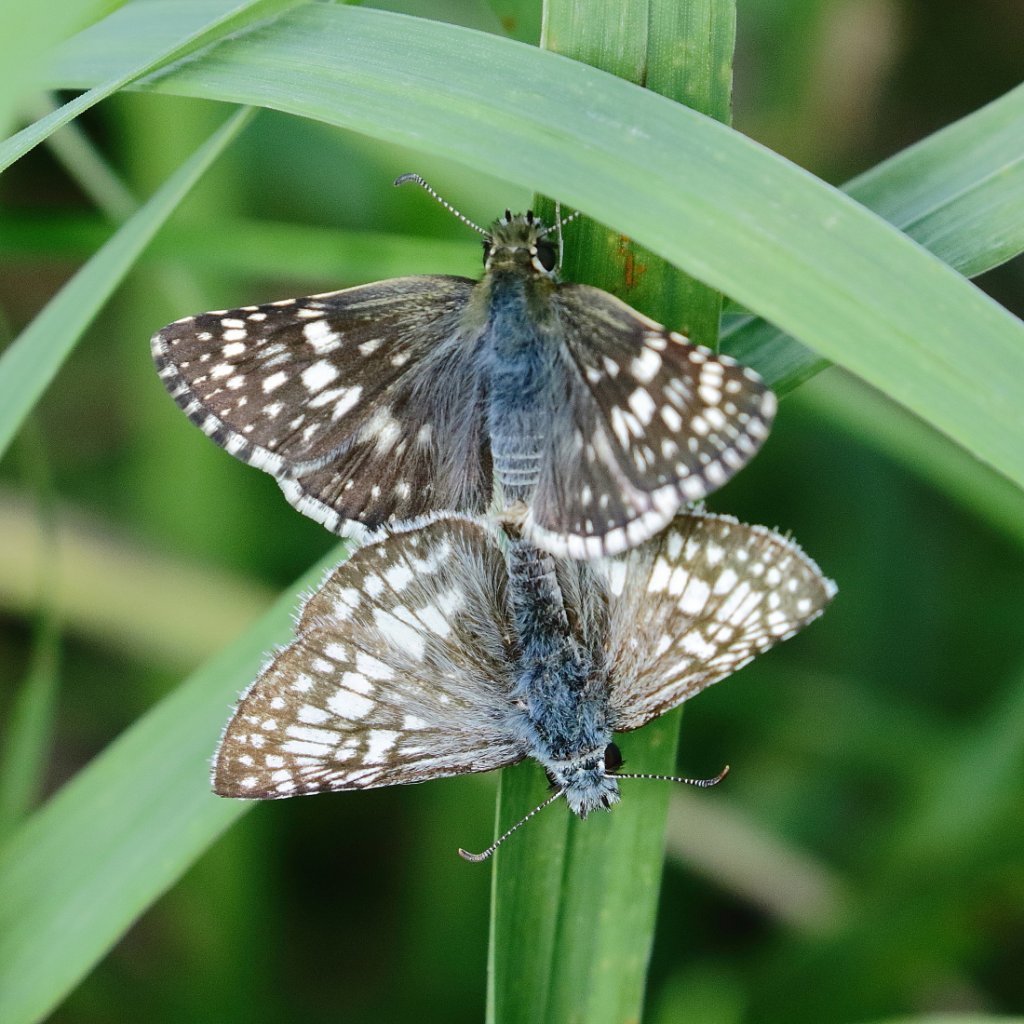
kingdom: Animalia
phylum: Arthropoda
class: Insecta
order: Lepidoptera
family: Hesperiidae
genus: Pyrgus
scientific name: Pyrgus communis
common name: Common Checkered-Skipper
